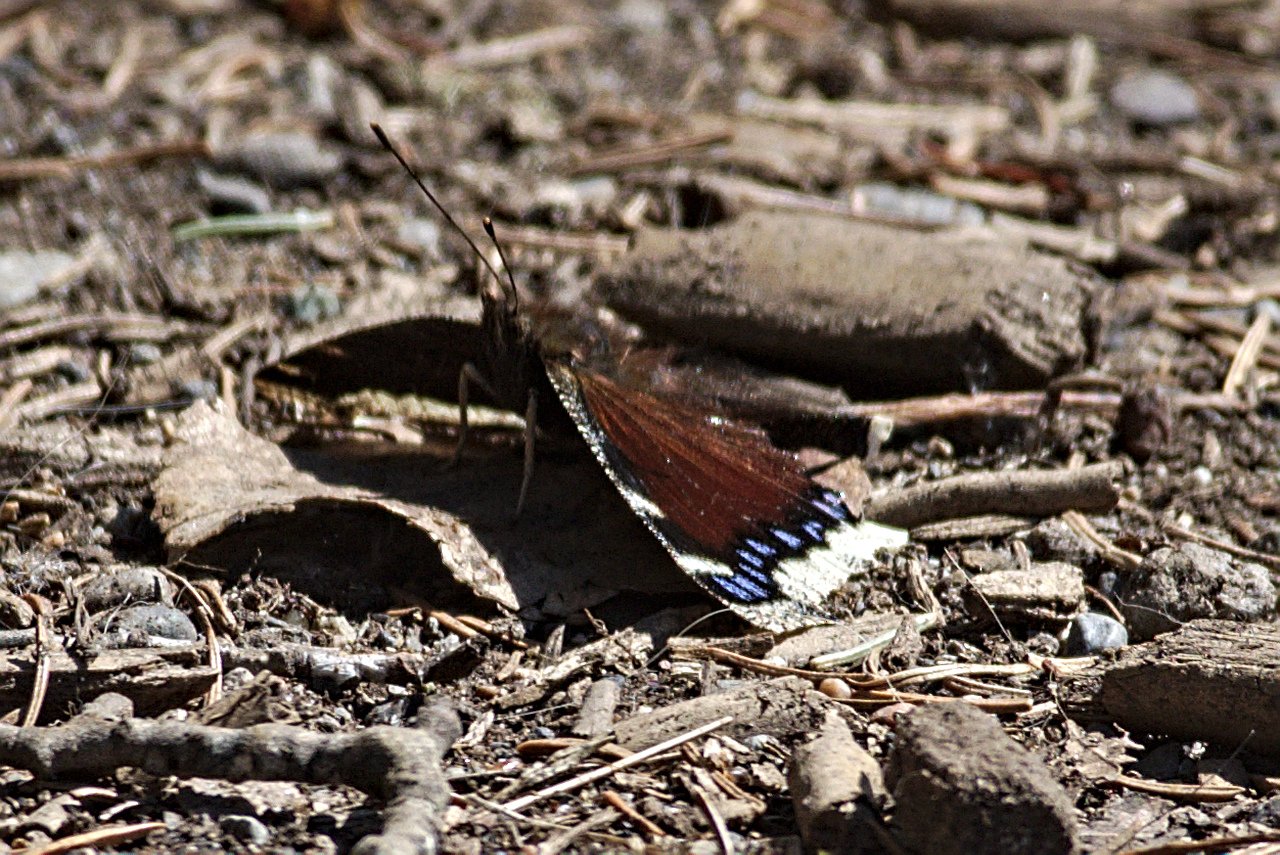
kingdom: Animalia
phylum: Arthropoda
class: Insecta
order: Lepidoptera
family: Nymphalidae
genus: Nymphalis
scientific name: Nymphalis antiopa
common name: Mourning Cloak
